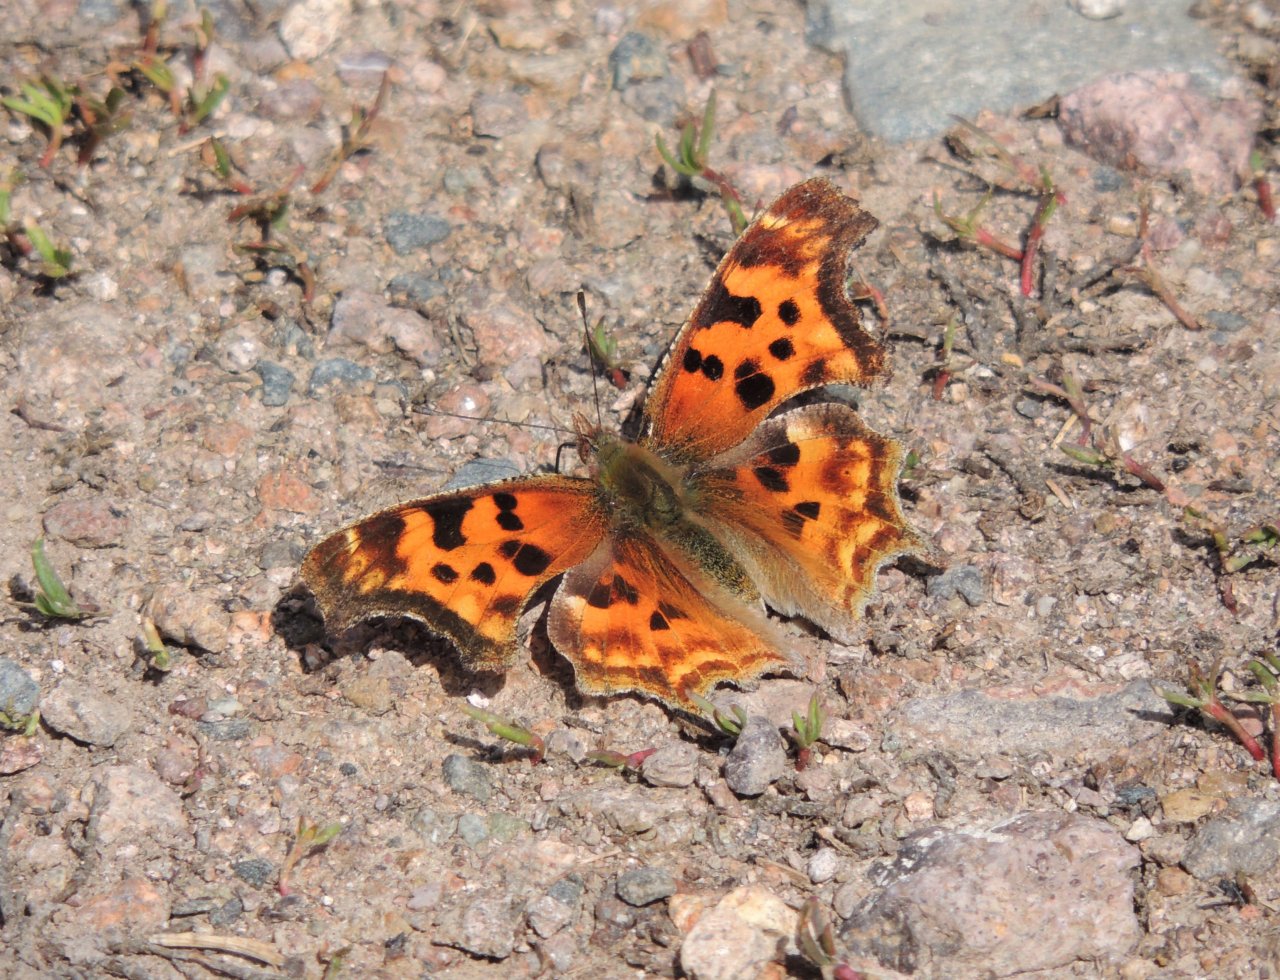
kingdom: Animalia
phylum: Arthropoda
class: Insecta
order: Lepidoptera
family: Nymphalidae
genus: Polygonia
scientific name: Polygonia satyrus
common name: Satyr Comma
